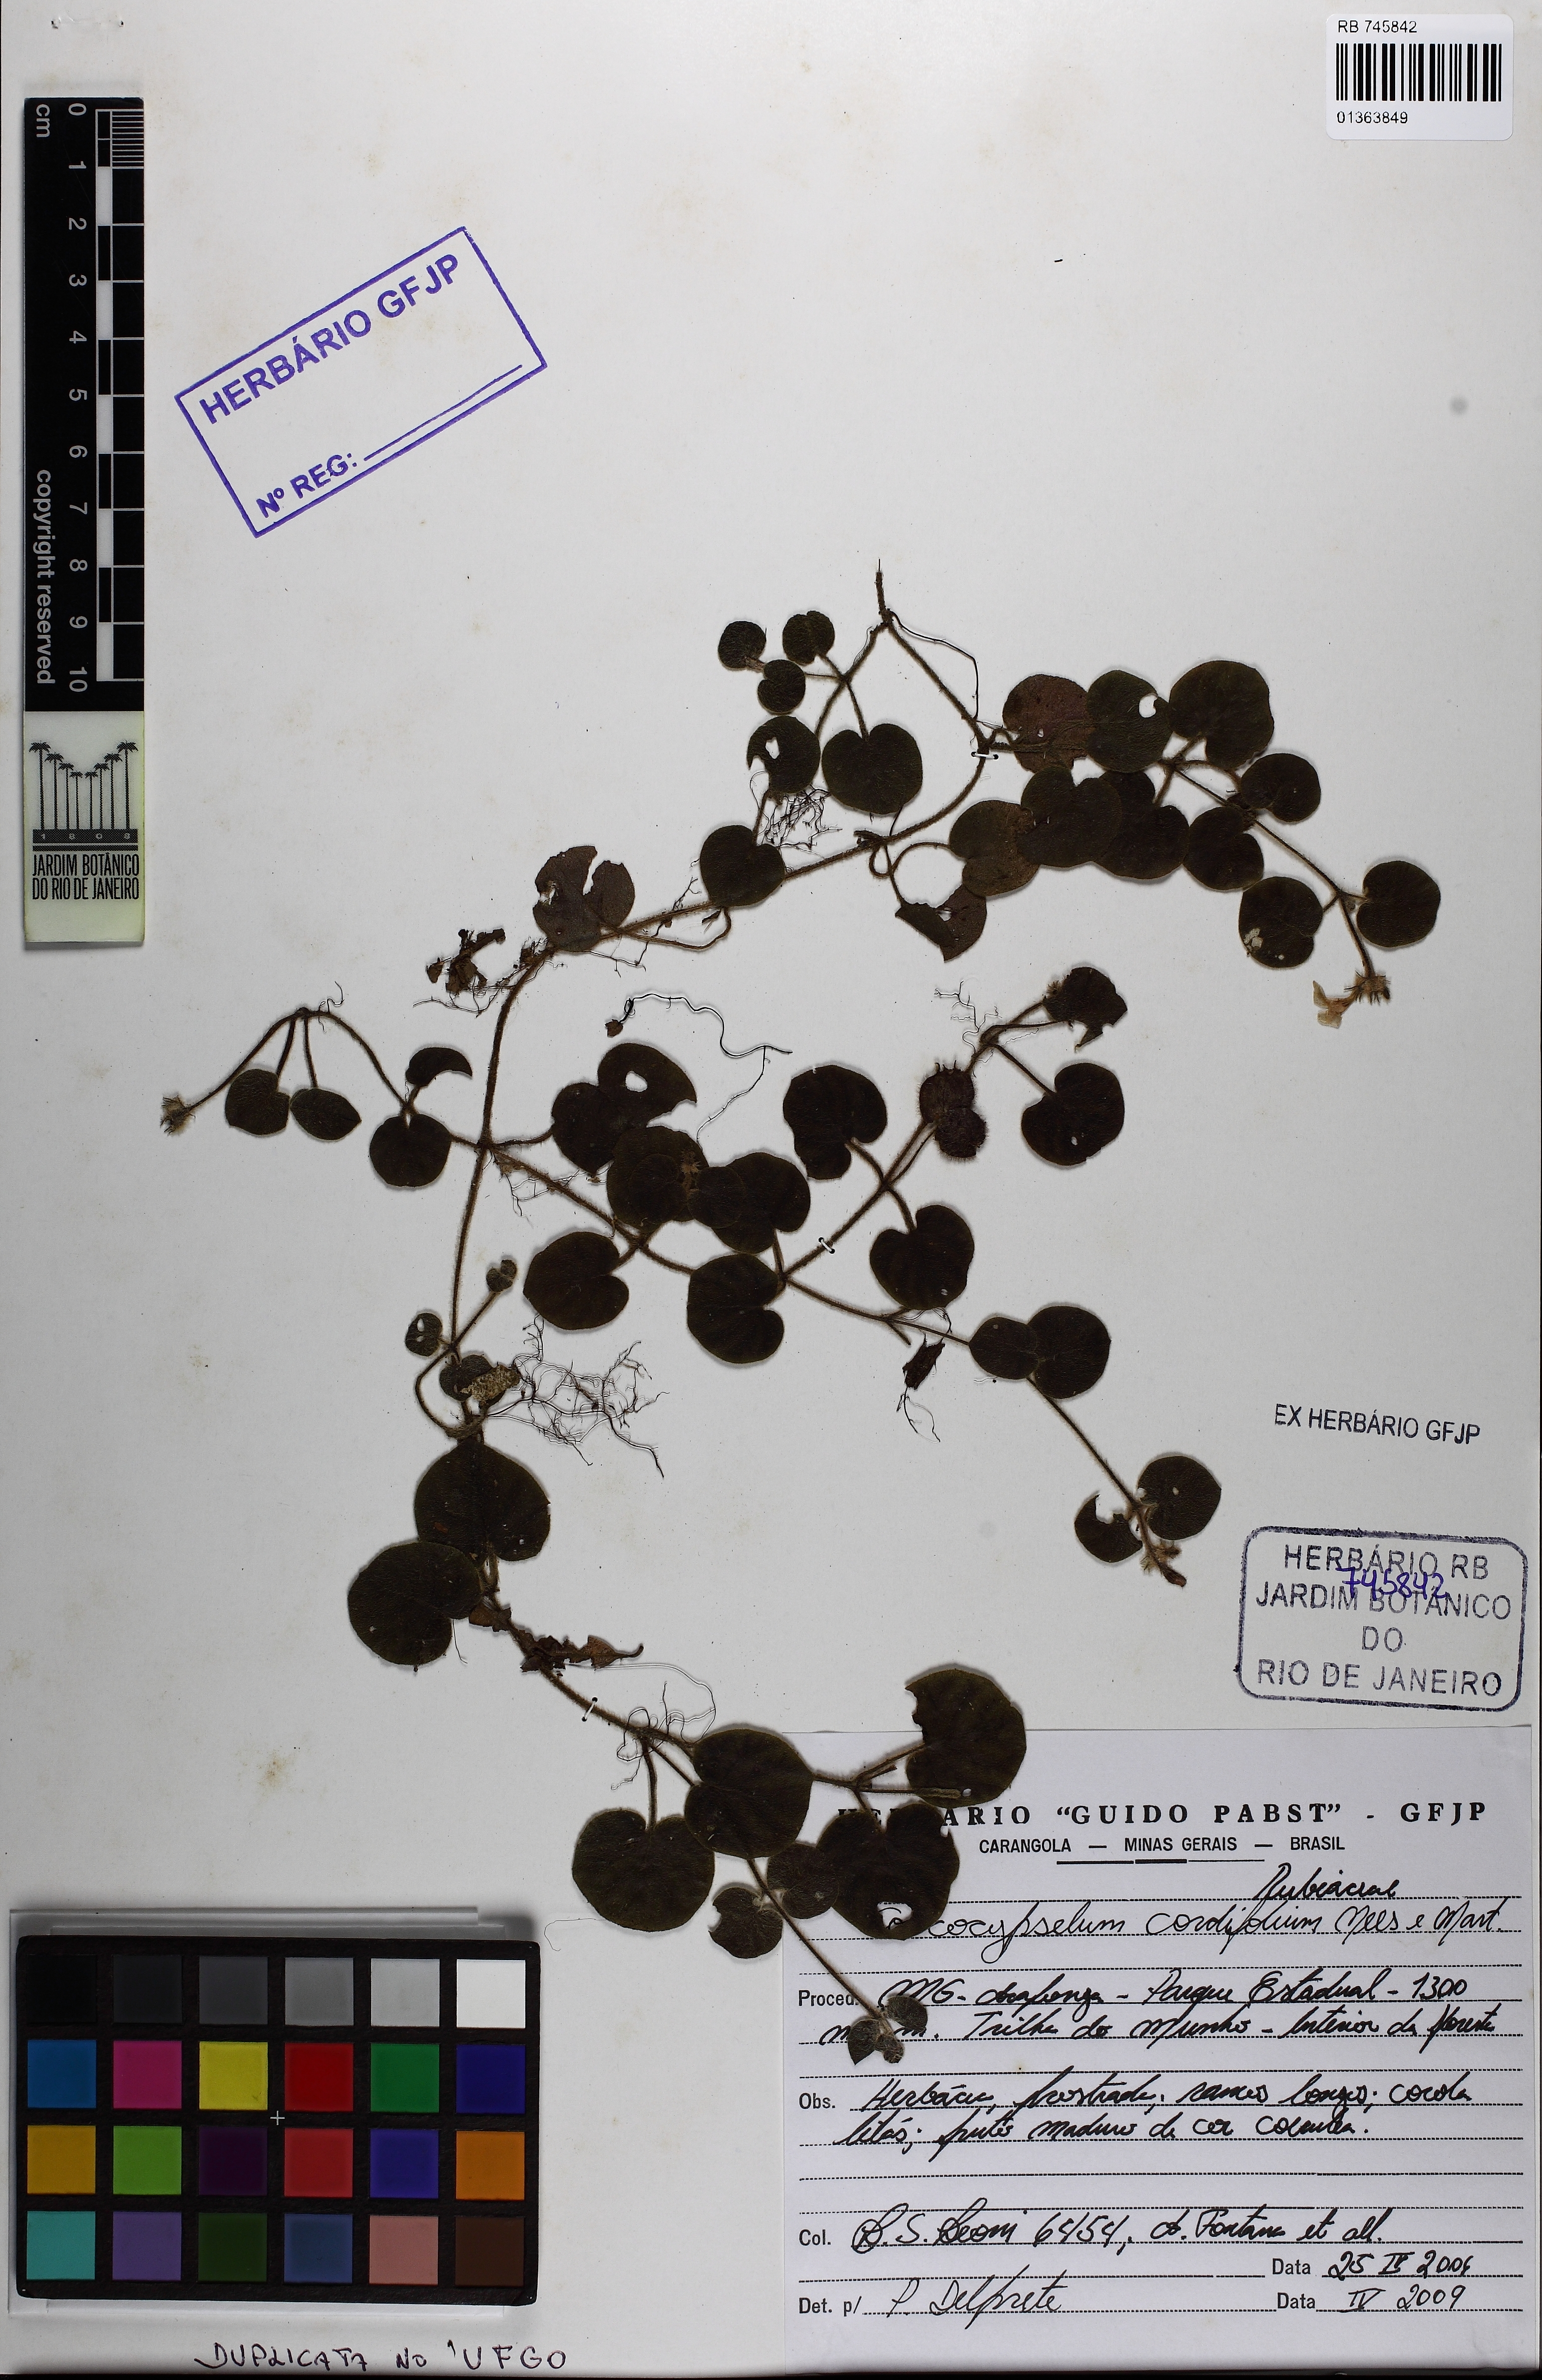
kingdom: Plantae
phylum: Tracheophyta
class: Magnoliopsida
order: Gentianales
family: Rubiaceae
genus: Coccocypselum
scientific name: Coccocypselum cordifolium
